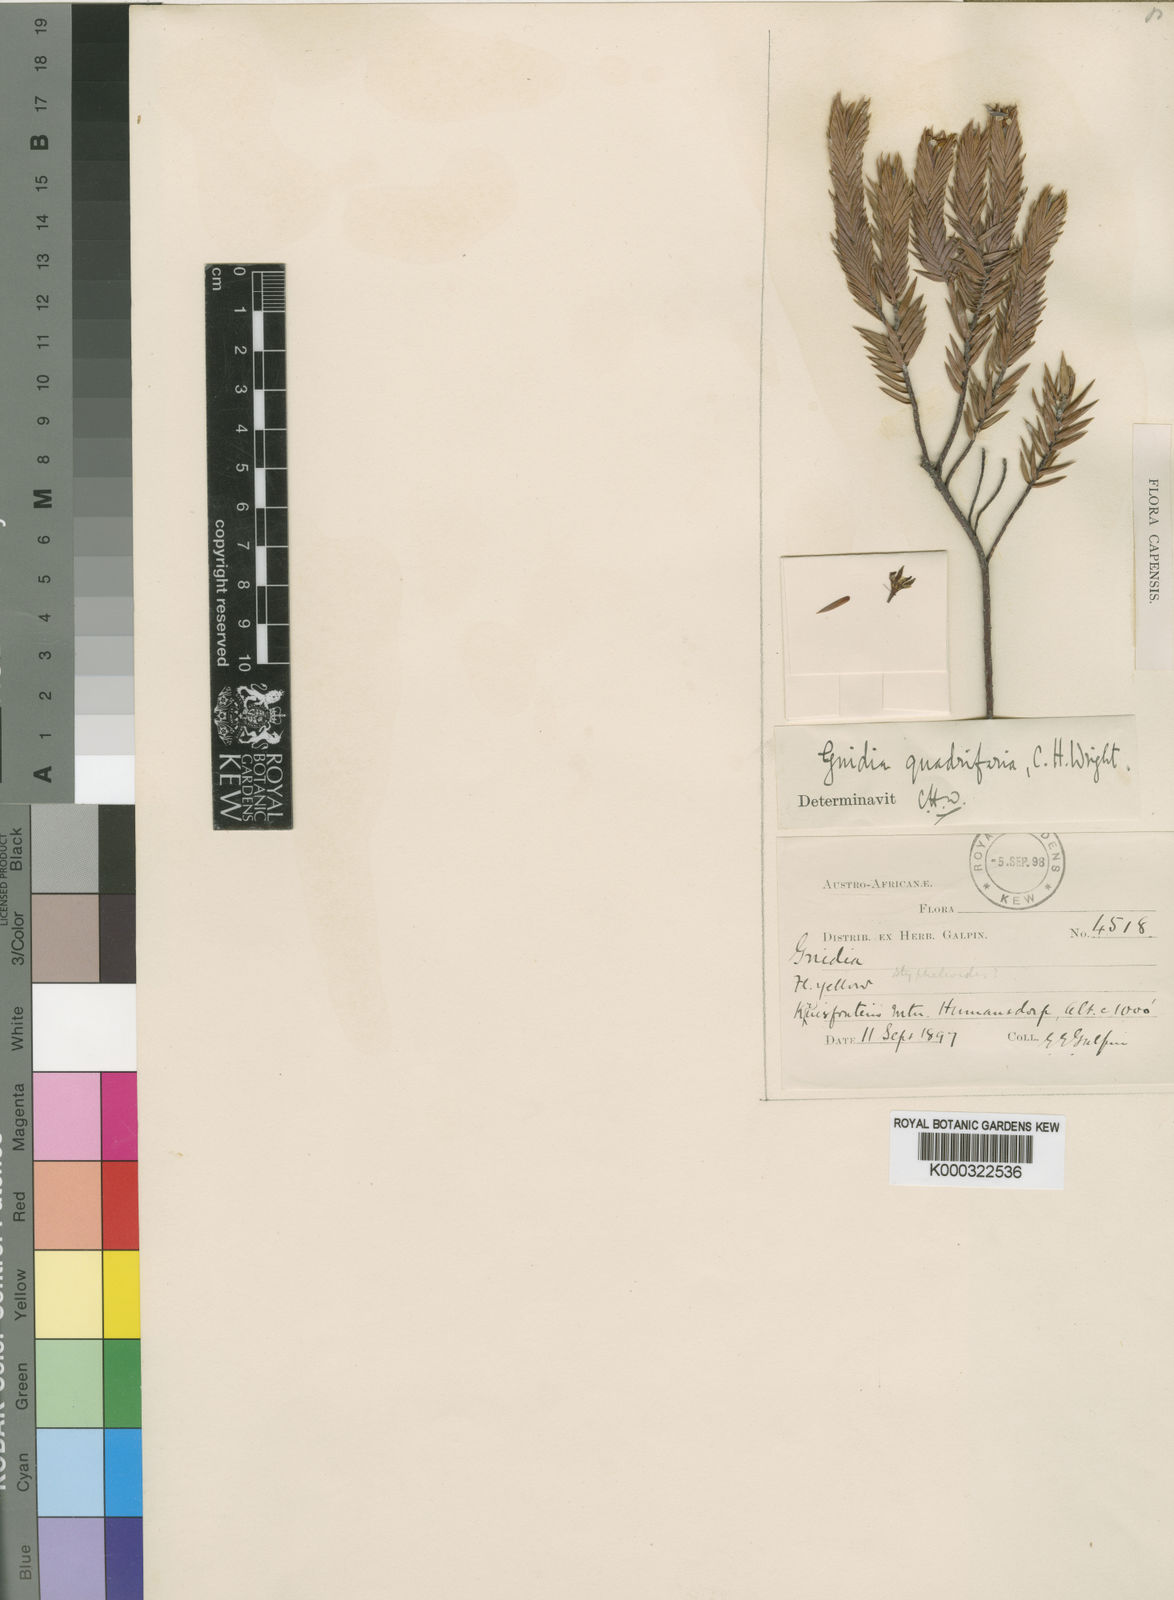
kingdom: Plantae
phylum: Tracheophyta
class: Magnoliopsida
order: Malvales
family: Thymelaeaceae
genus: Gnidia
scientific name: Gnidia styphelioides
